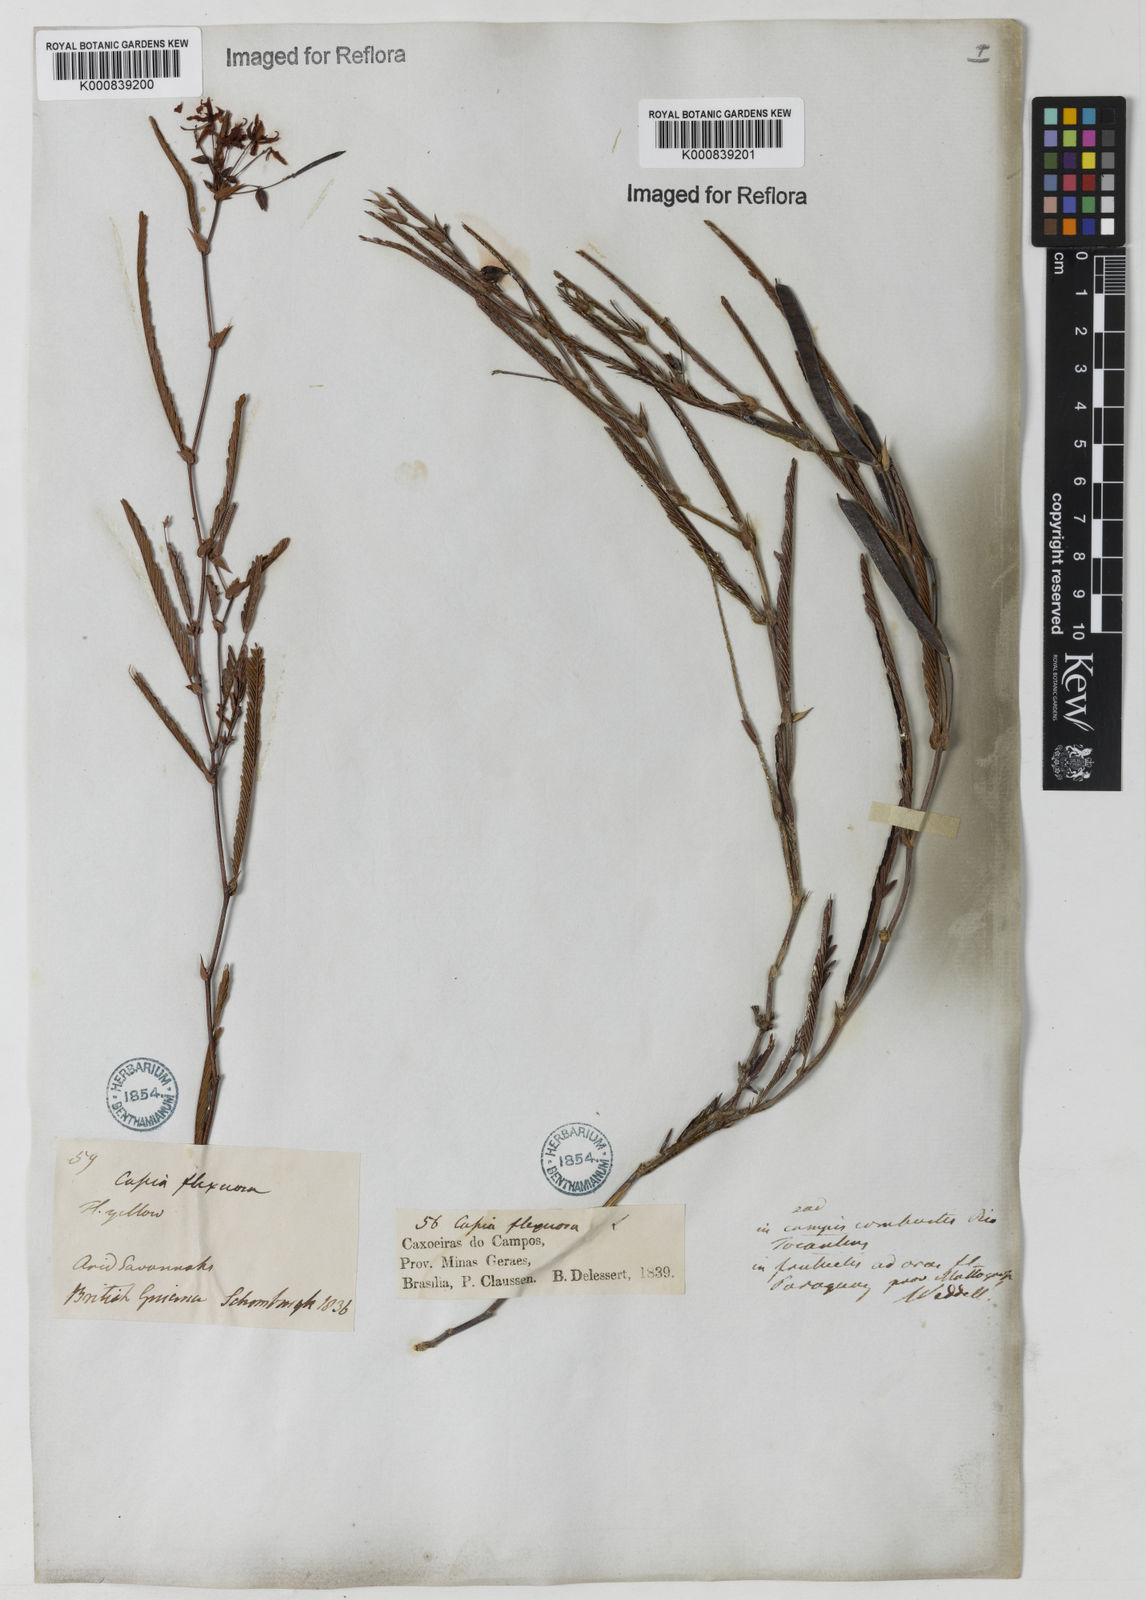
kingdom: Plantae
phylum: Tracheophyta
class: Magnoliopsida
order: Fabales
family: Fabaceae
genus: Chamaecrista
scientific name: Chamaecrista flexuosa
